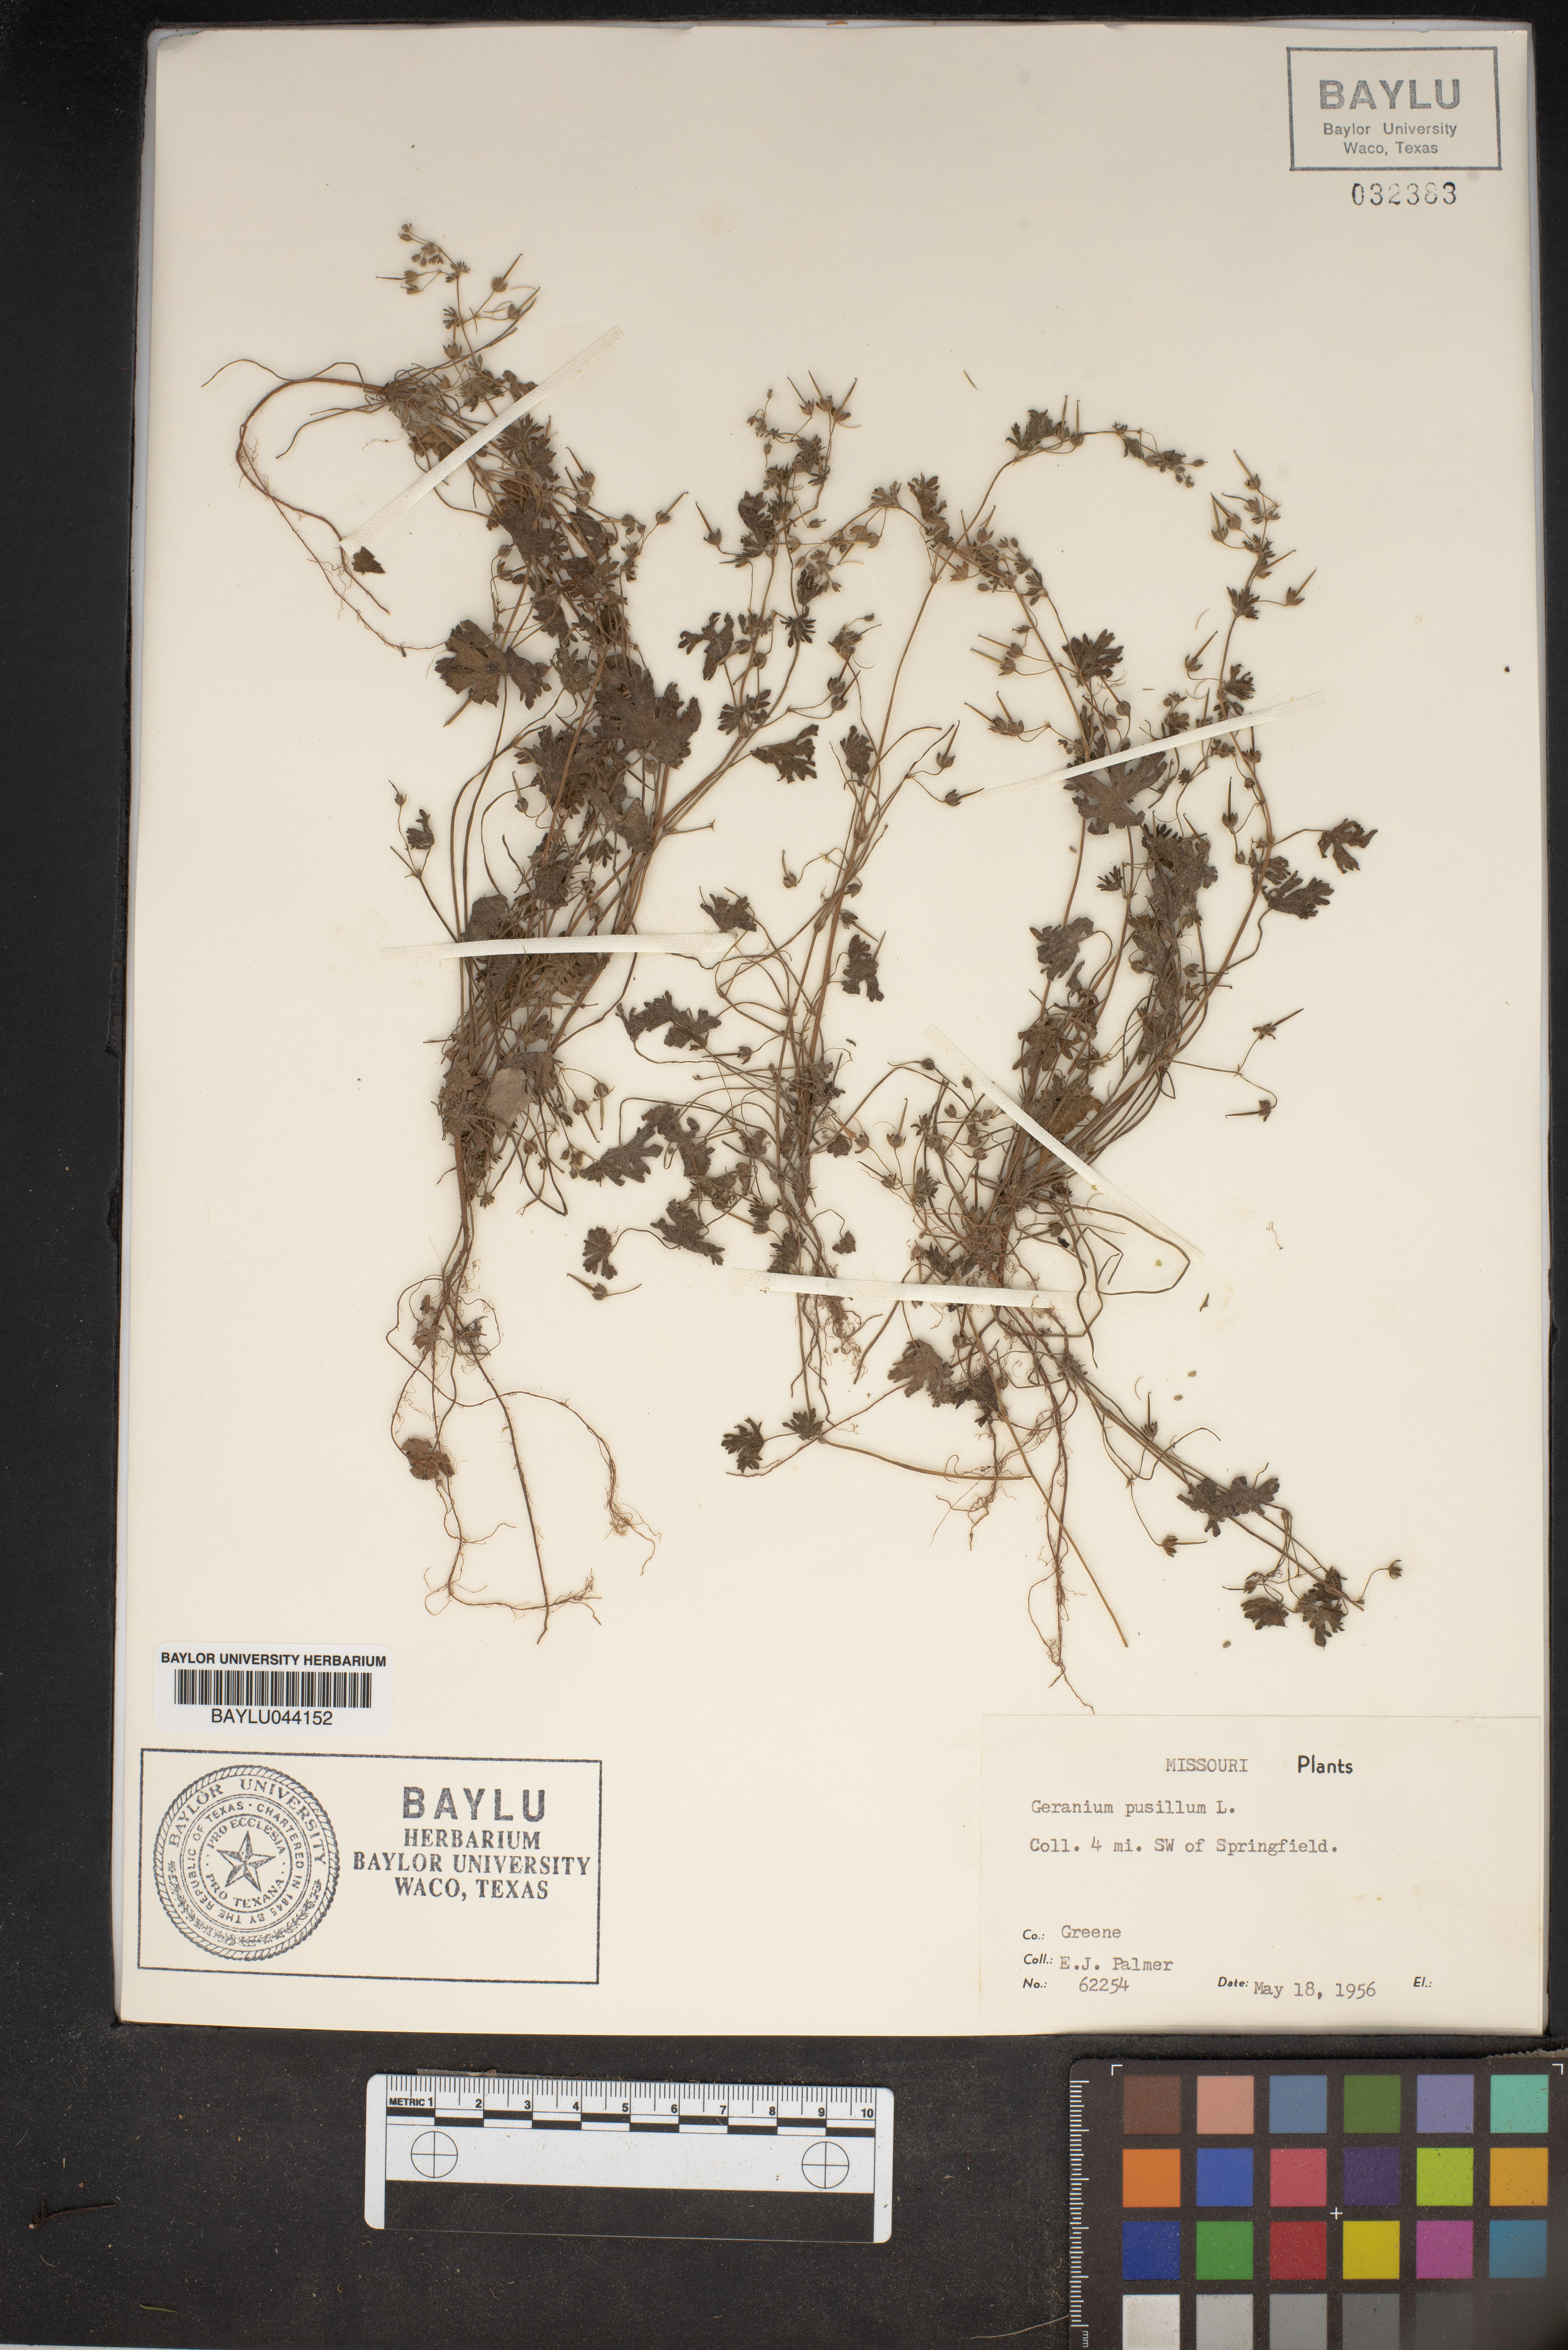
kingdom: Plantae
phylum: Tracheophyta
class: Magnoliopsida
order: Geraniales
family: Geraniaceae
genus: Geranium
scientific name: Geranium pusillum
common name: Small geranium
